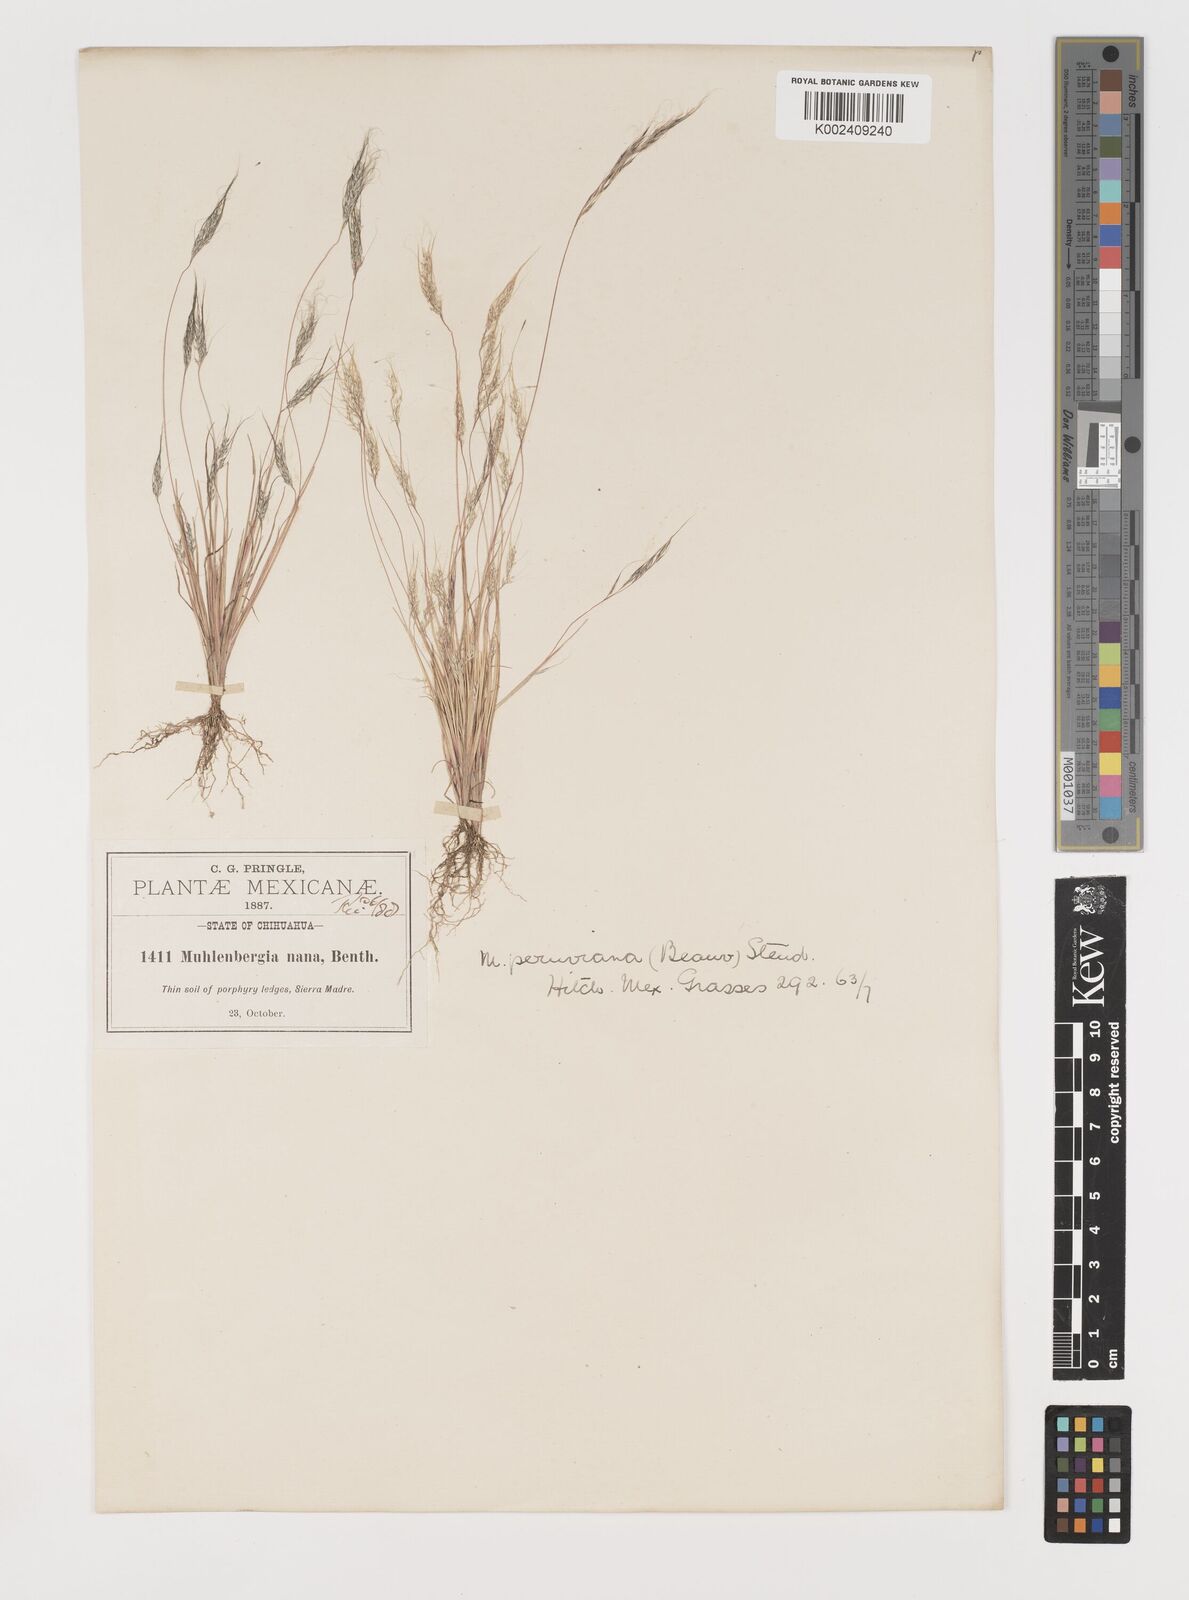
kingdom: Plantae
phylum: Tracheophyta
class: Liliopsida
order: Poales
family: Poaceae
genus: Muhlenbergia
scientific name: Muhlenbergia peruviana
